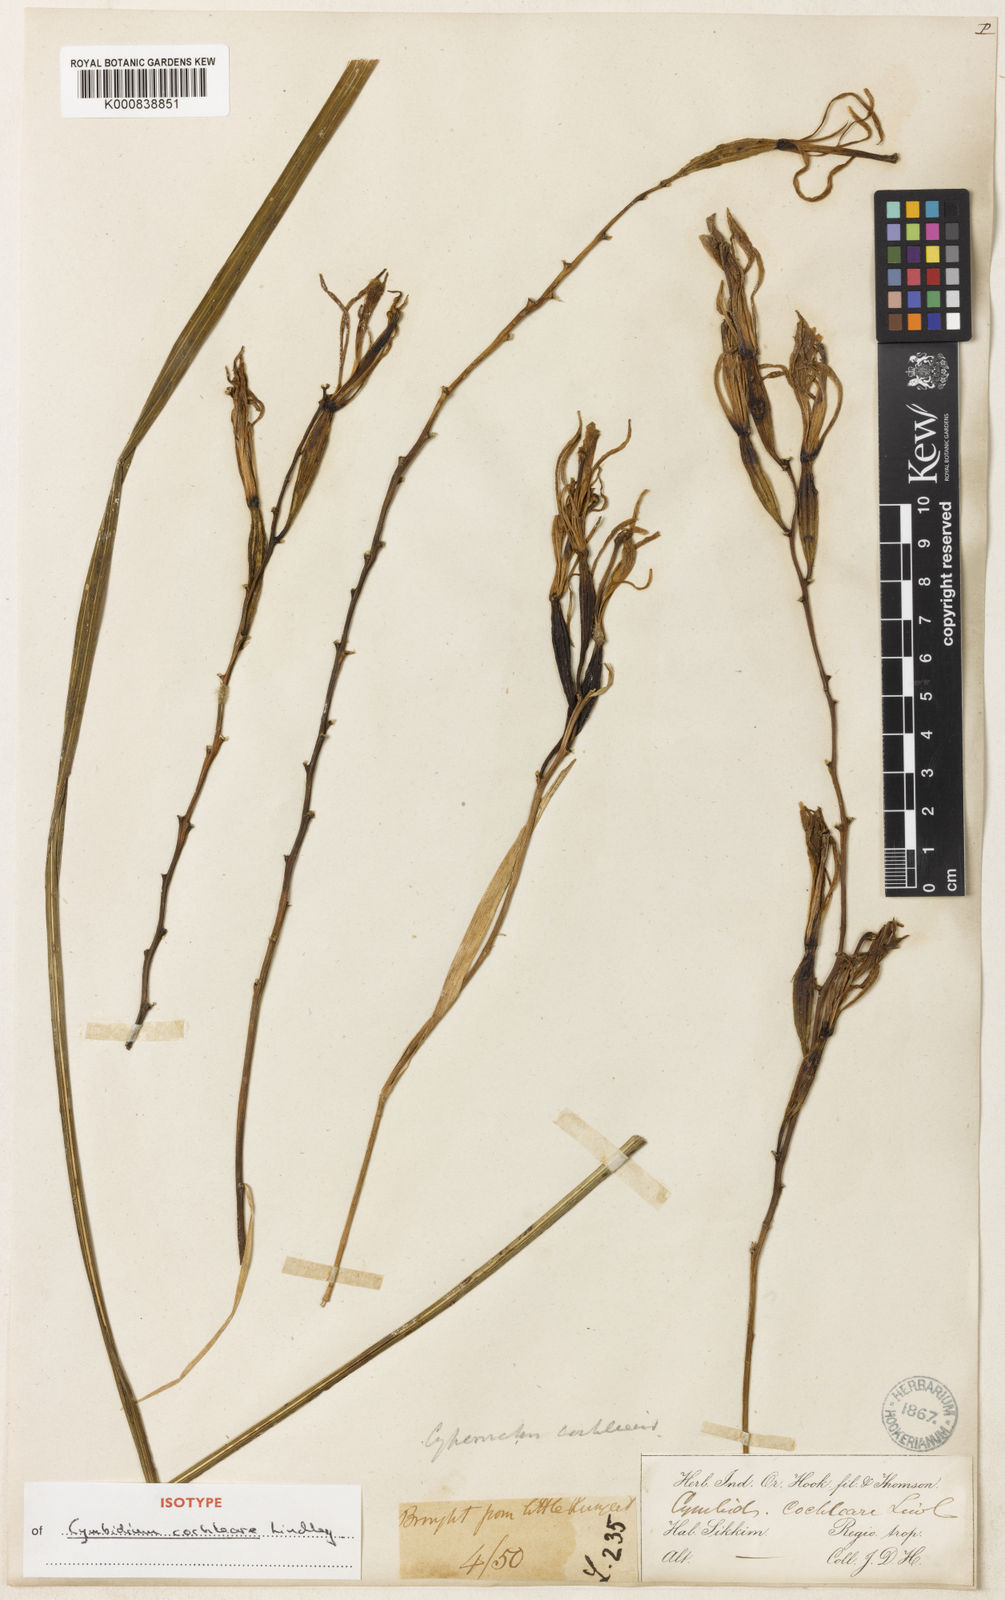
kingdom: Plantae
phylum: Tracheophyta
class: Liliopsida
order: Asparagales
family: Orchidaceae
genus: Cymbidium
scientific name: Cymbidium cochleare
